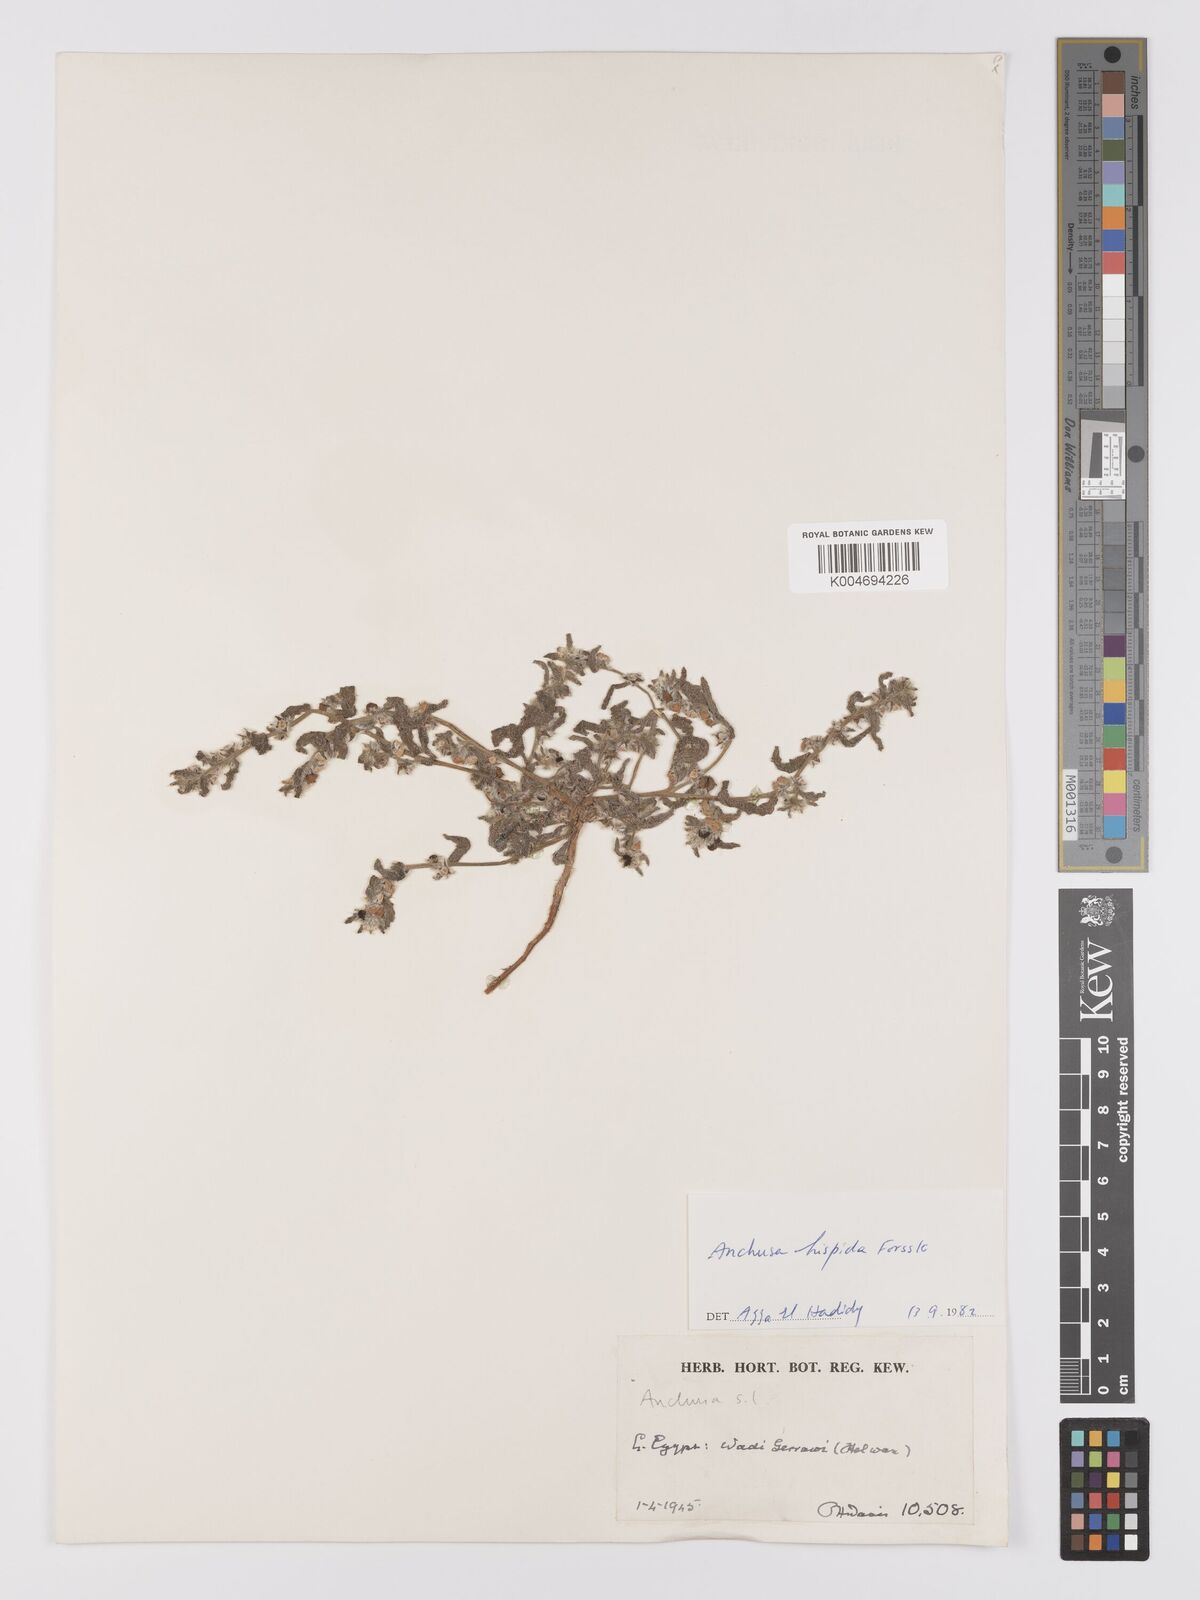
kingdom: Plantae
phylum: Tracheophyta
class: Magnoliopsida
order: Boraginales
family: Boraginaceae
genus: Gastrocotyle
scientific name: Gastrocotyle hispida
